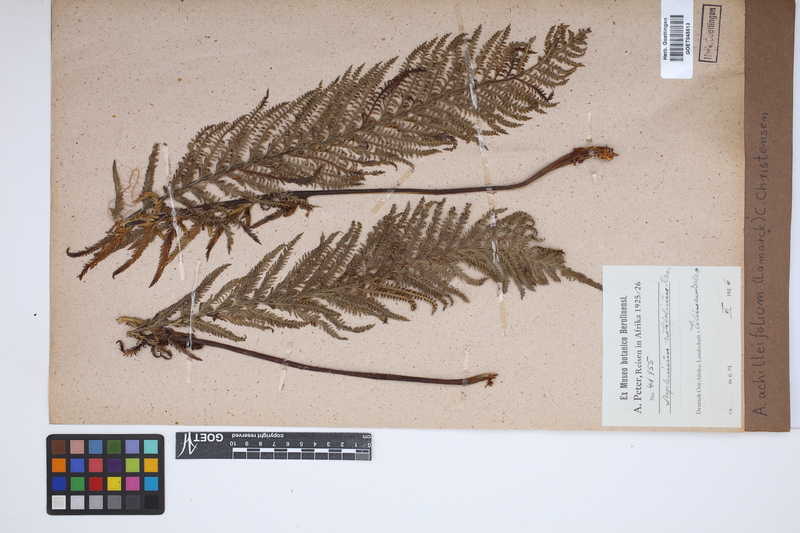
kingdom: Plantae
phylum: Tracheophyta
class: Polypodiopsida
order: Polypodiales
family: Aspleniaceae
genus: Asplenium
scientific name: Asplenium rutifolium
